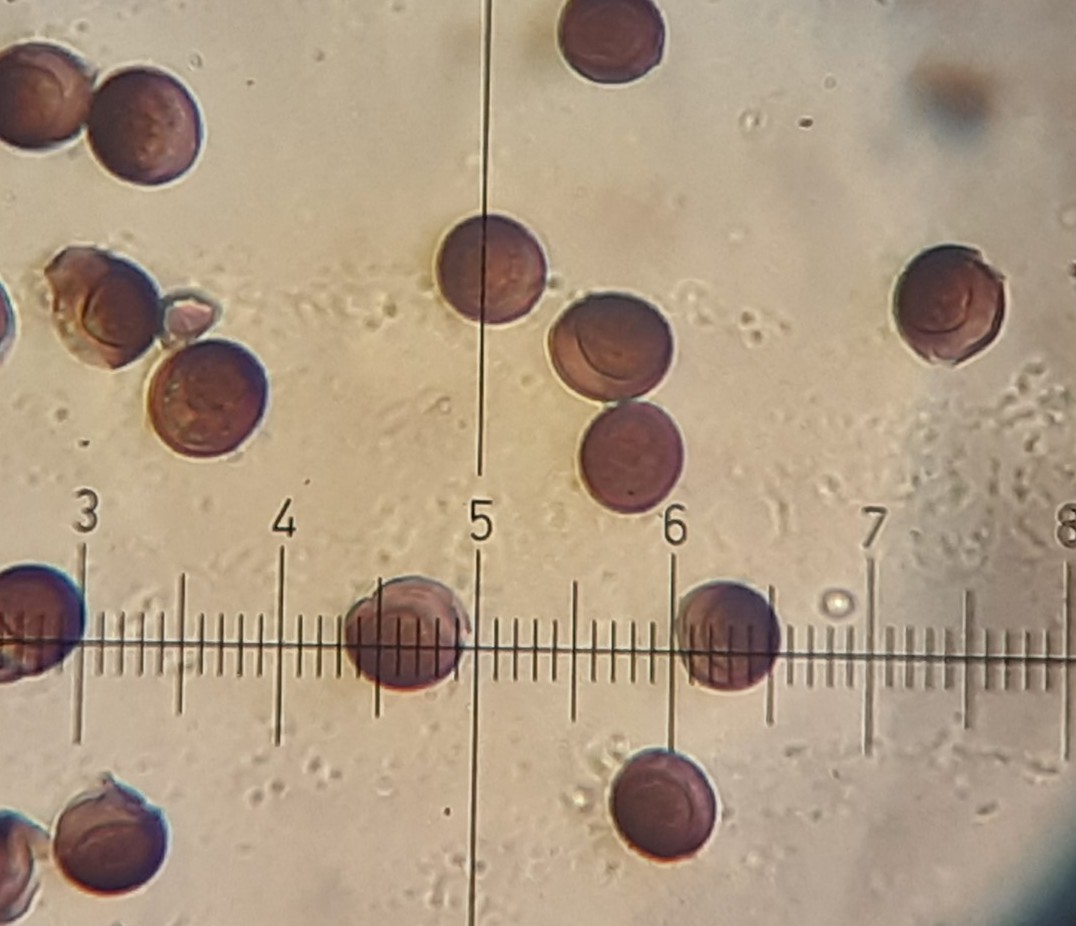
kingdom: Protozoa
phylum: Mycetozoa
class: Myxomycetes
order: Physarales
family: Didymiaceae
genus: Didymium
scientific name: Didymium difforme
